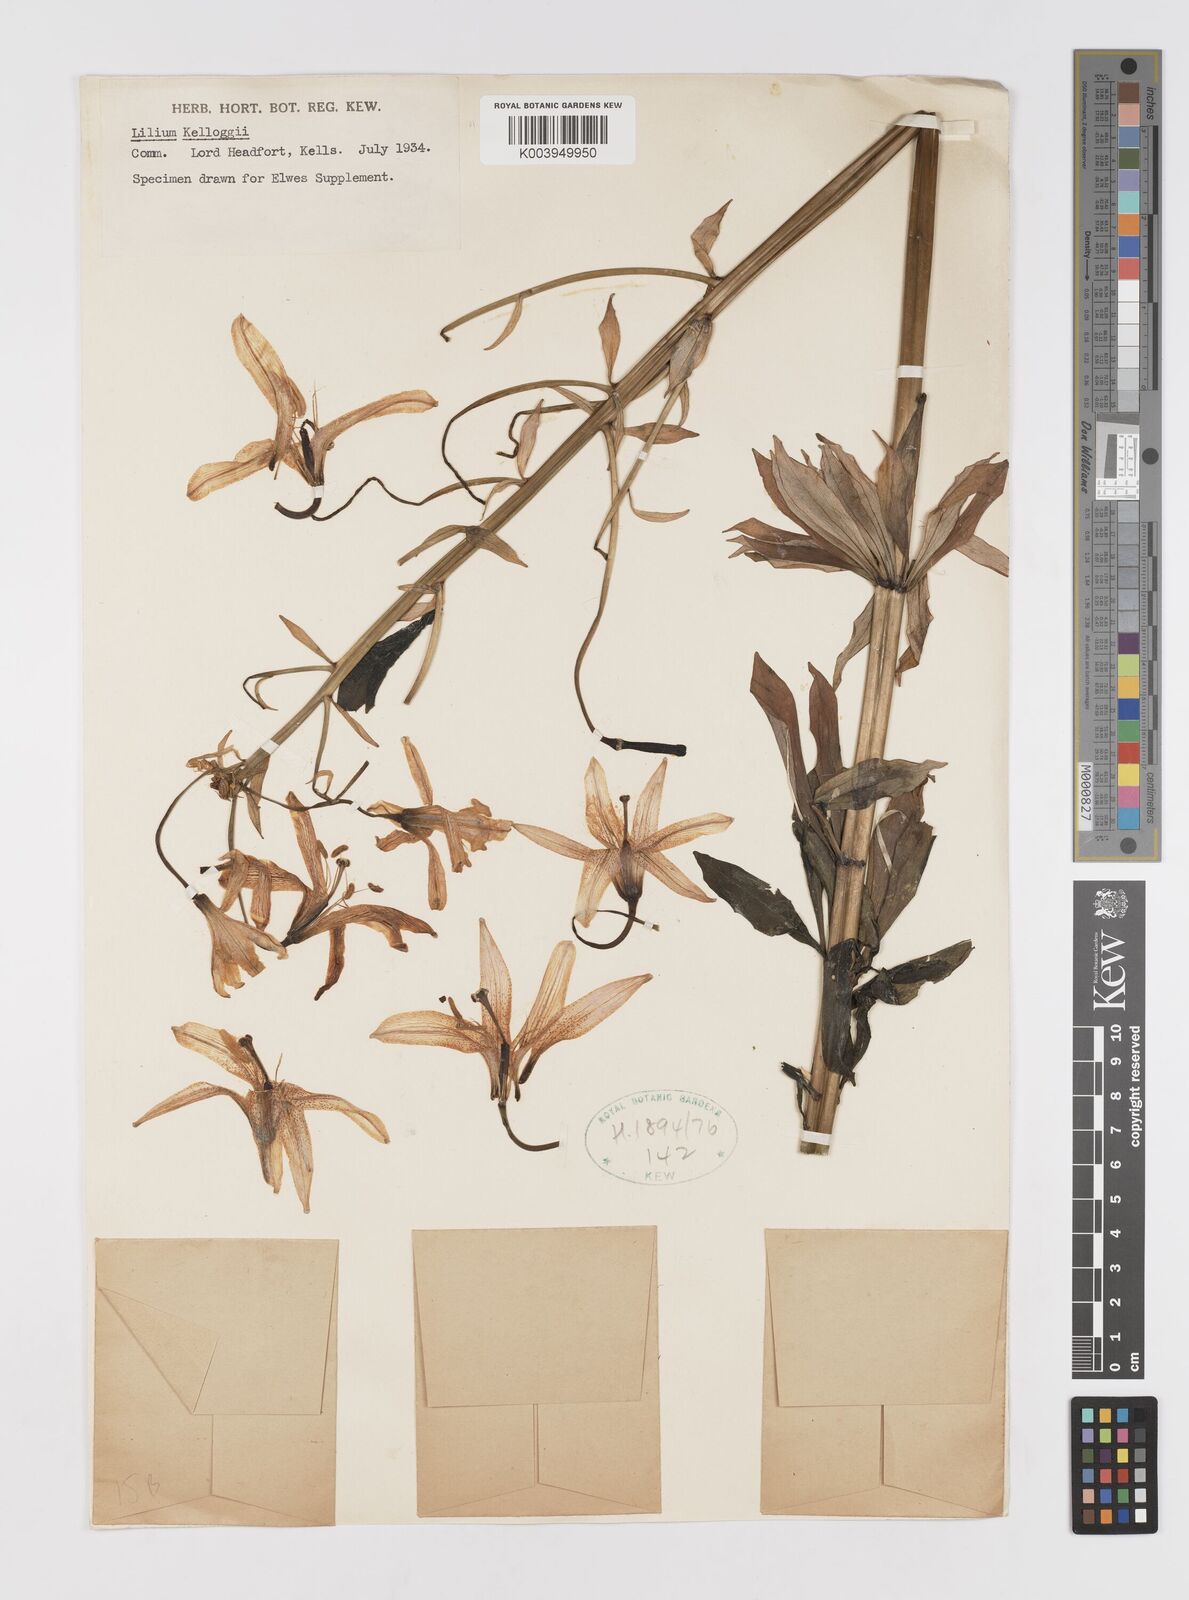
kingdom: Plantae
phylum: Tracheophyta
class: Liliopsida
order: Liliales
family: Liliaceae
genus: Lilium
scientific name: Lilium kelloggii
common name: Kellogg's lily
